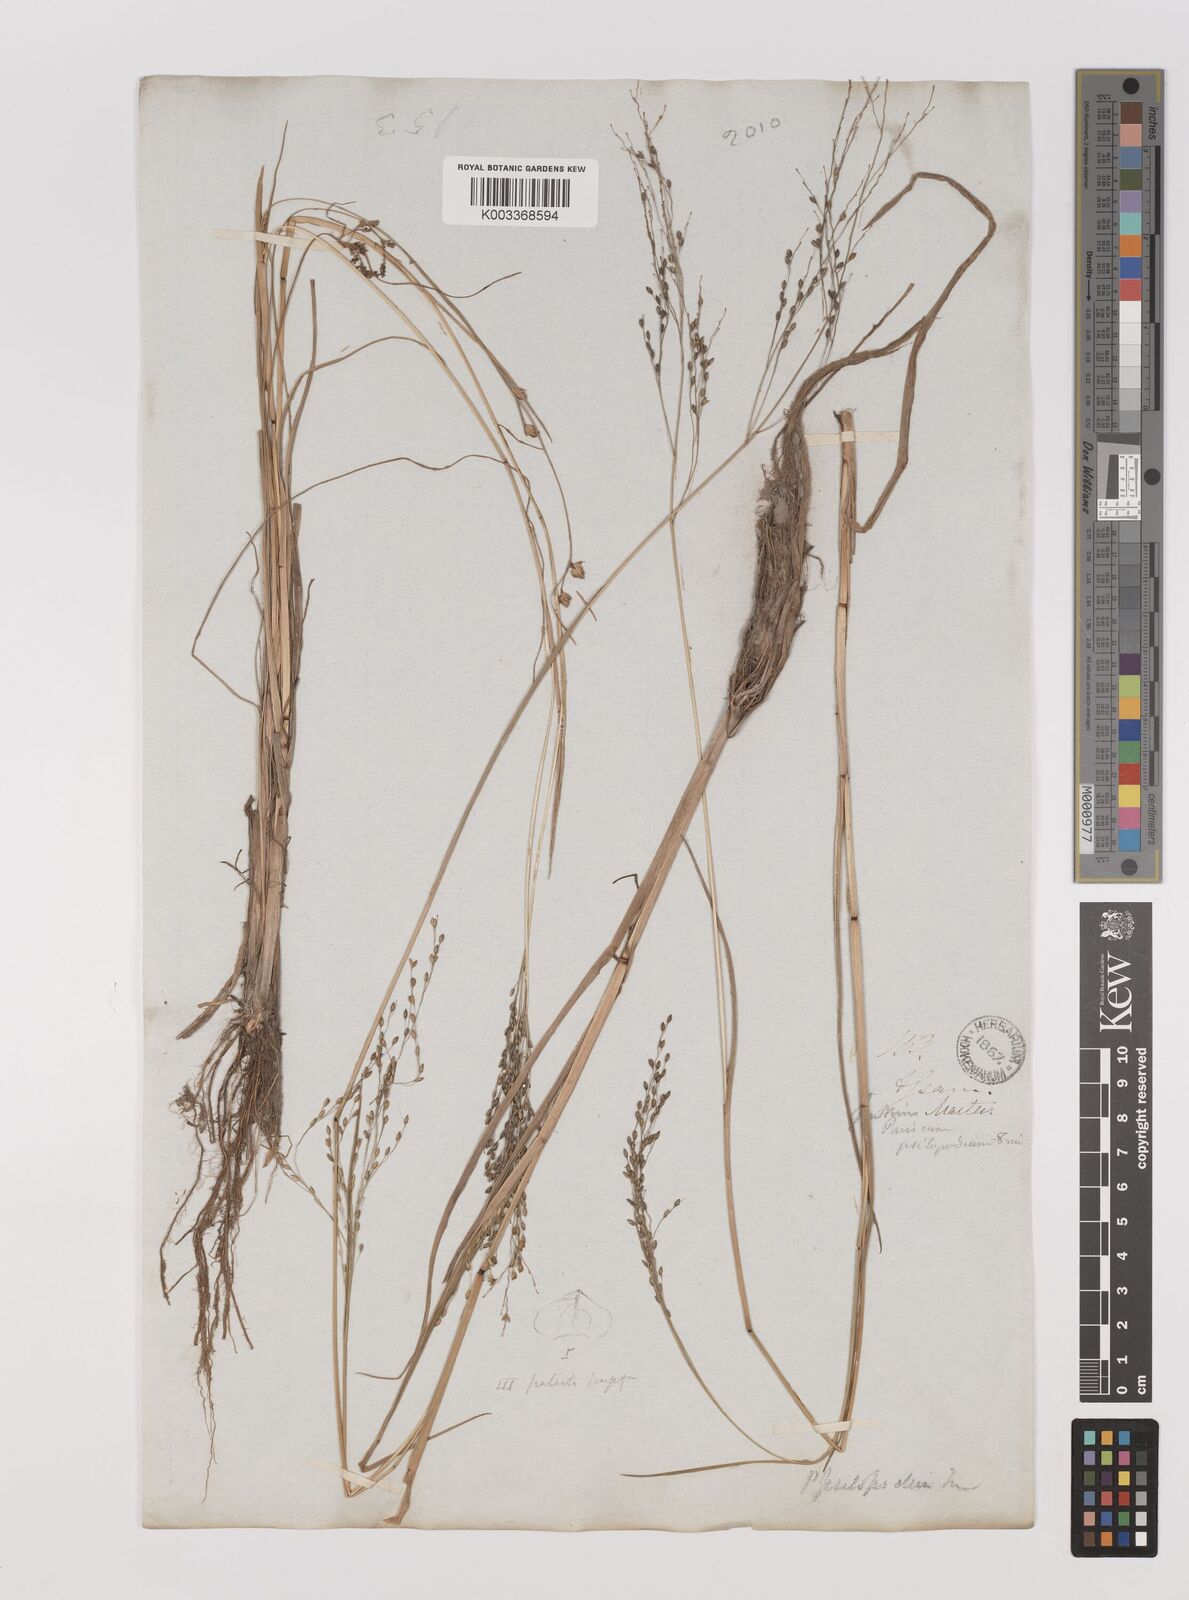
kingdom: Plantae
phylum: Tracheophyta
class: Liliopsida
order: Poales
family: Poaceae
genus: Panicum
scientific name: Panicum sumatrense
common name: Little millet
